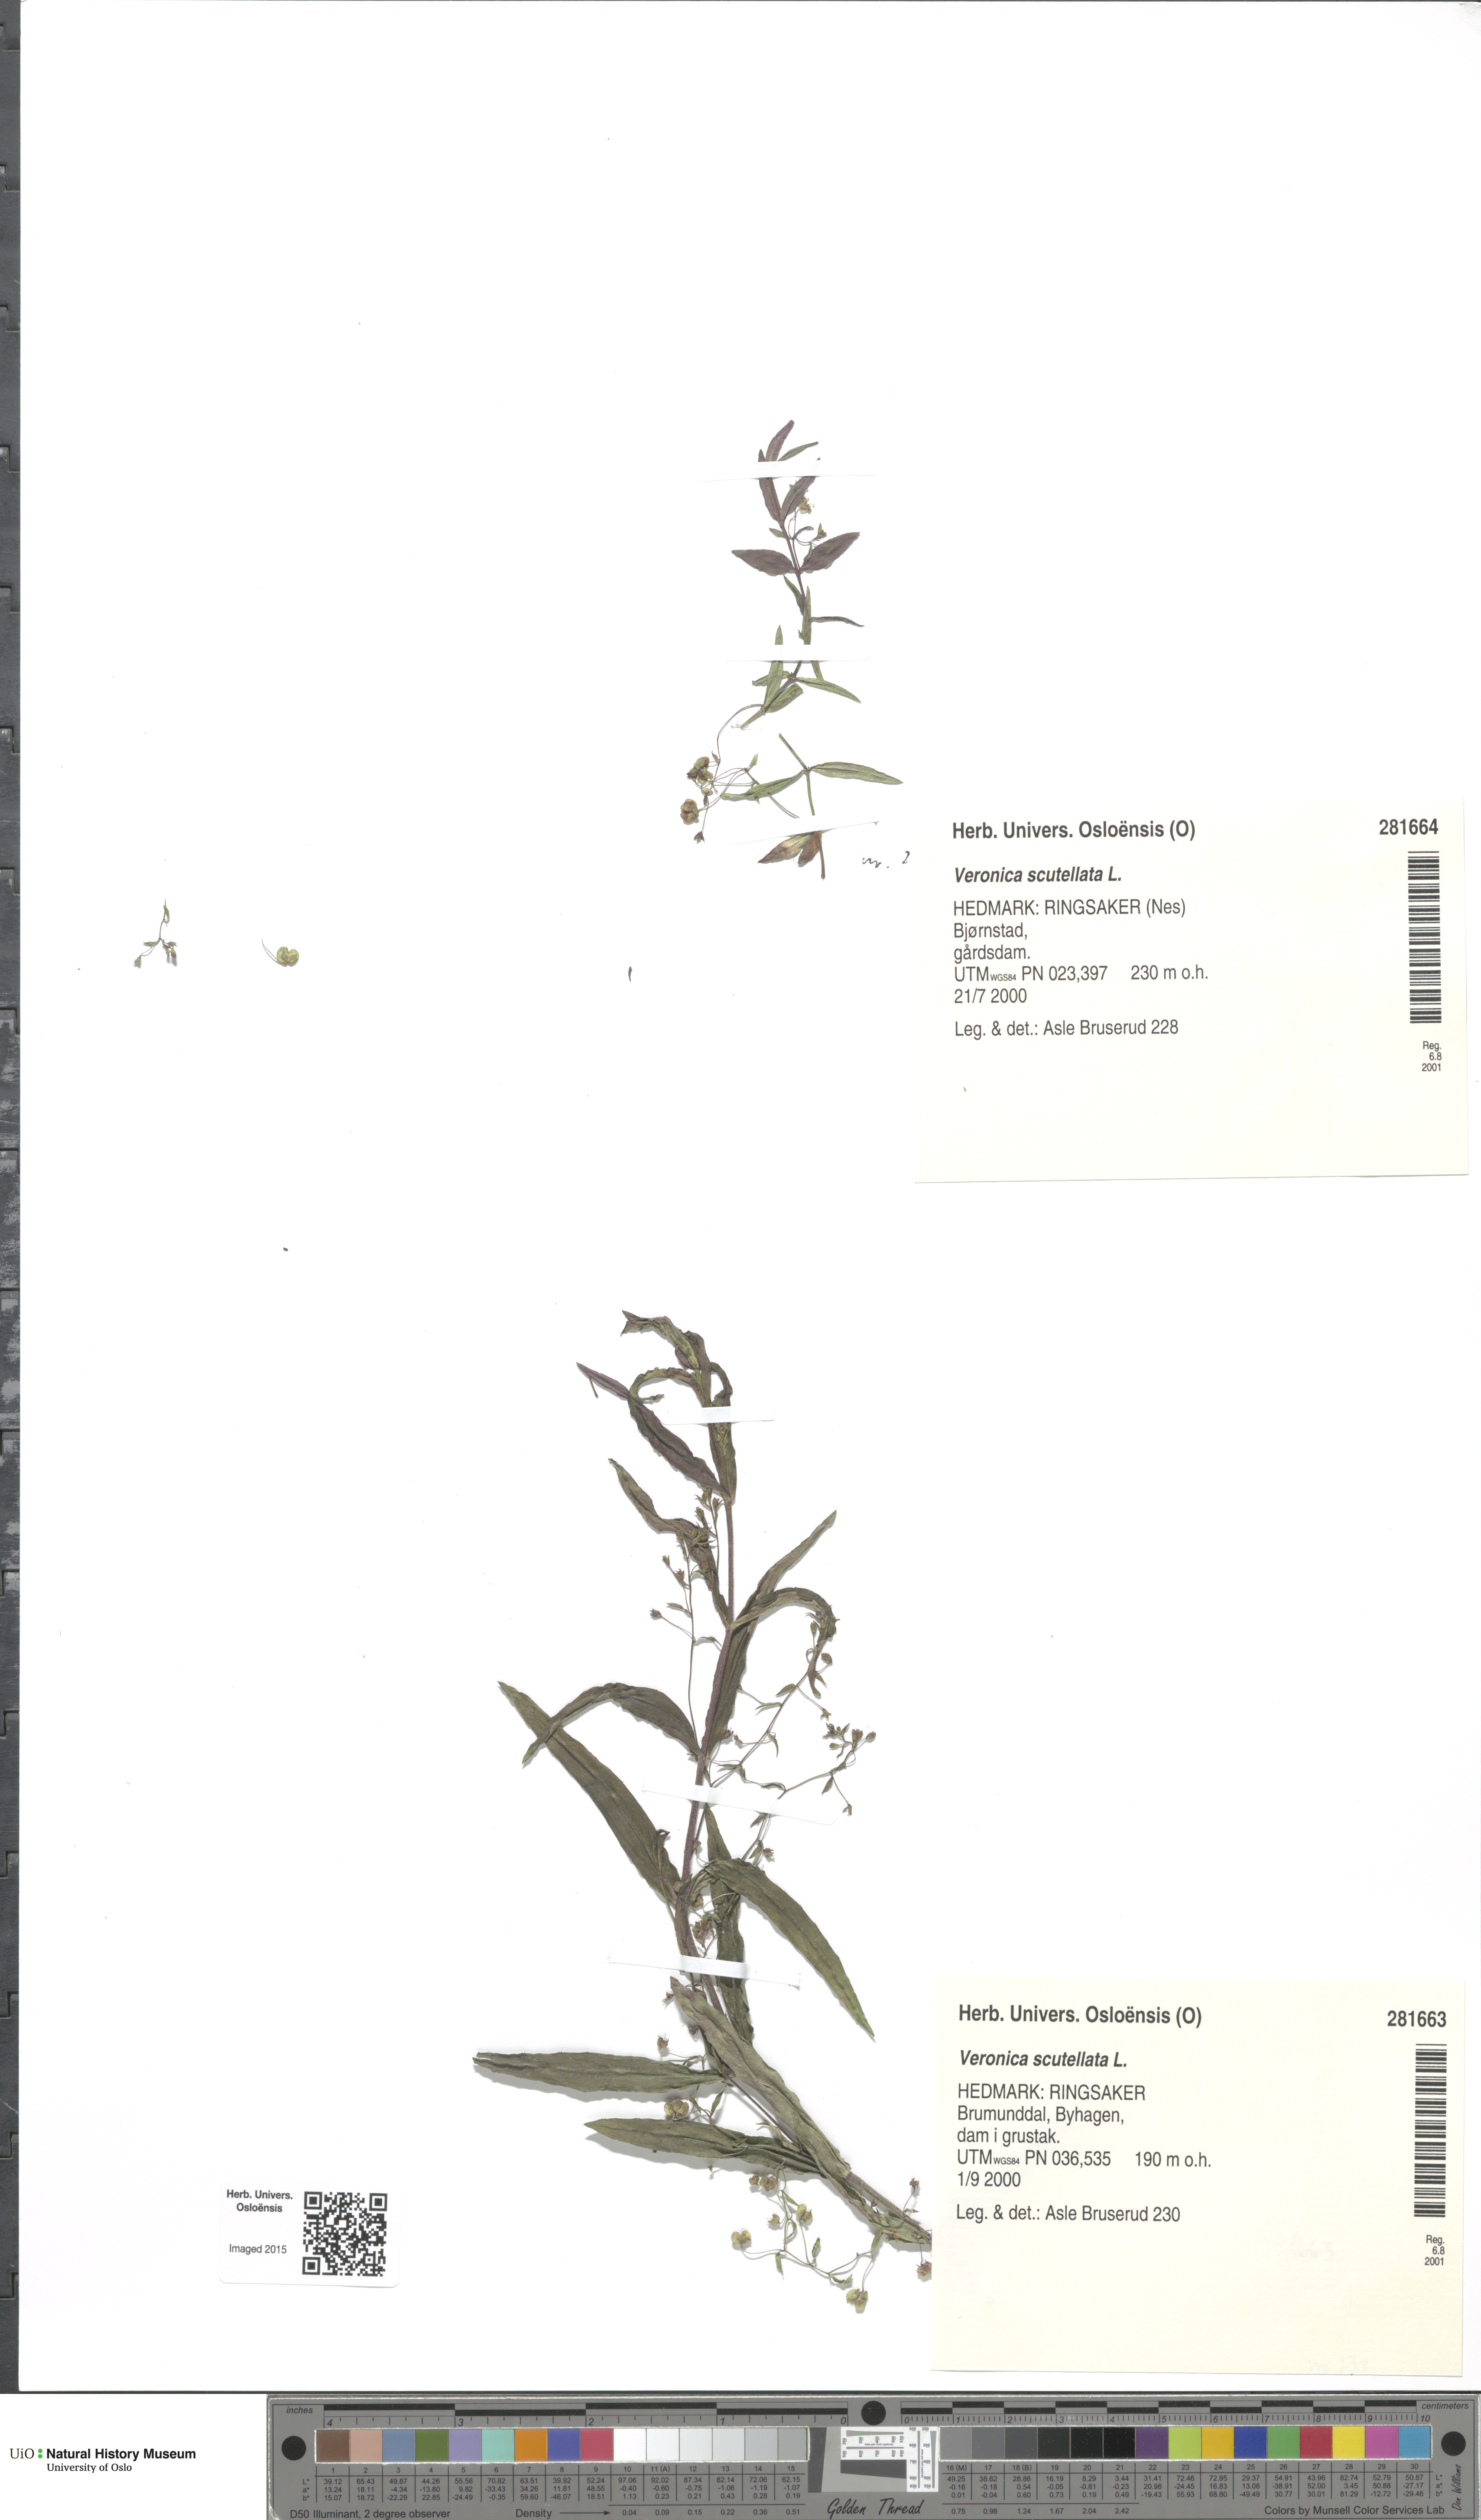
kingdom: Plantae
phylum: Tracheophyta
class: Magnoliopsida
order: Lamiales
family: Plantaginaceae
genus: Veronica
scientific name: Veronica scutellata
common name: Marsh speedwell
